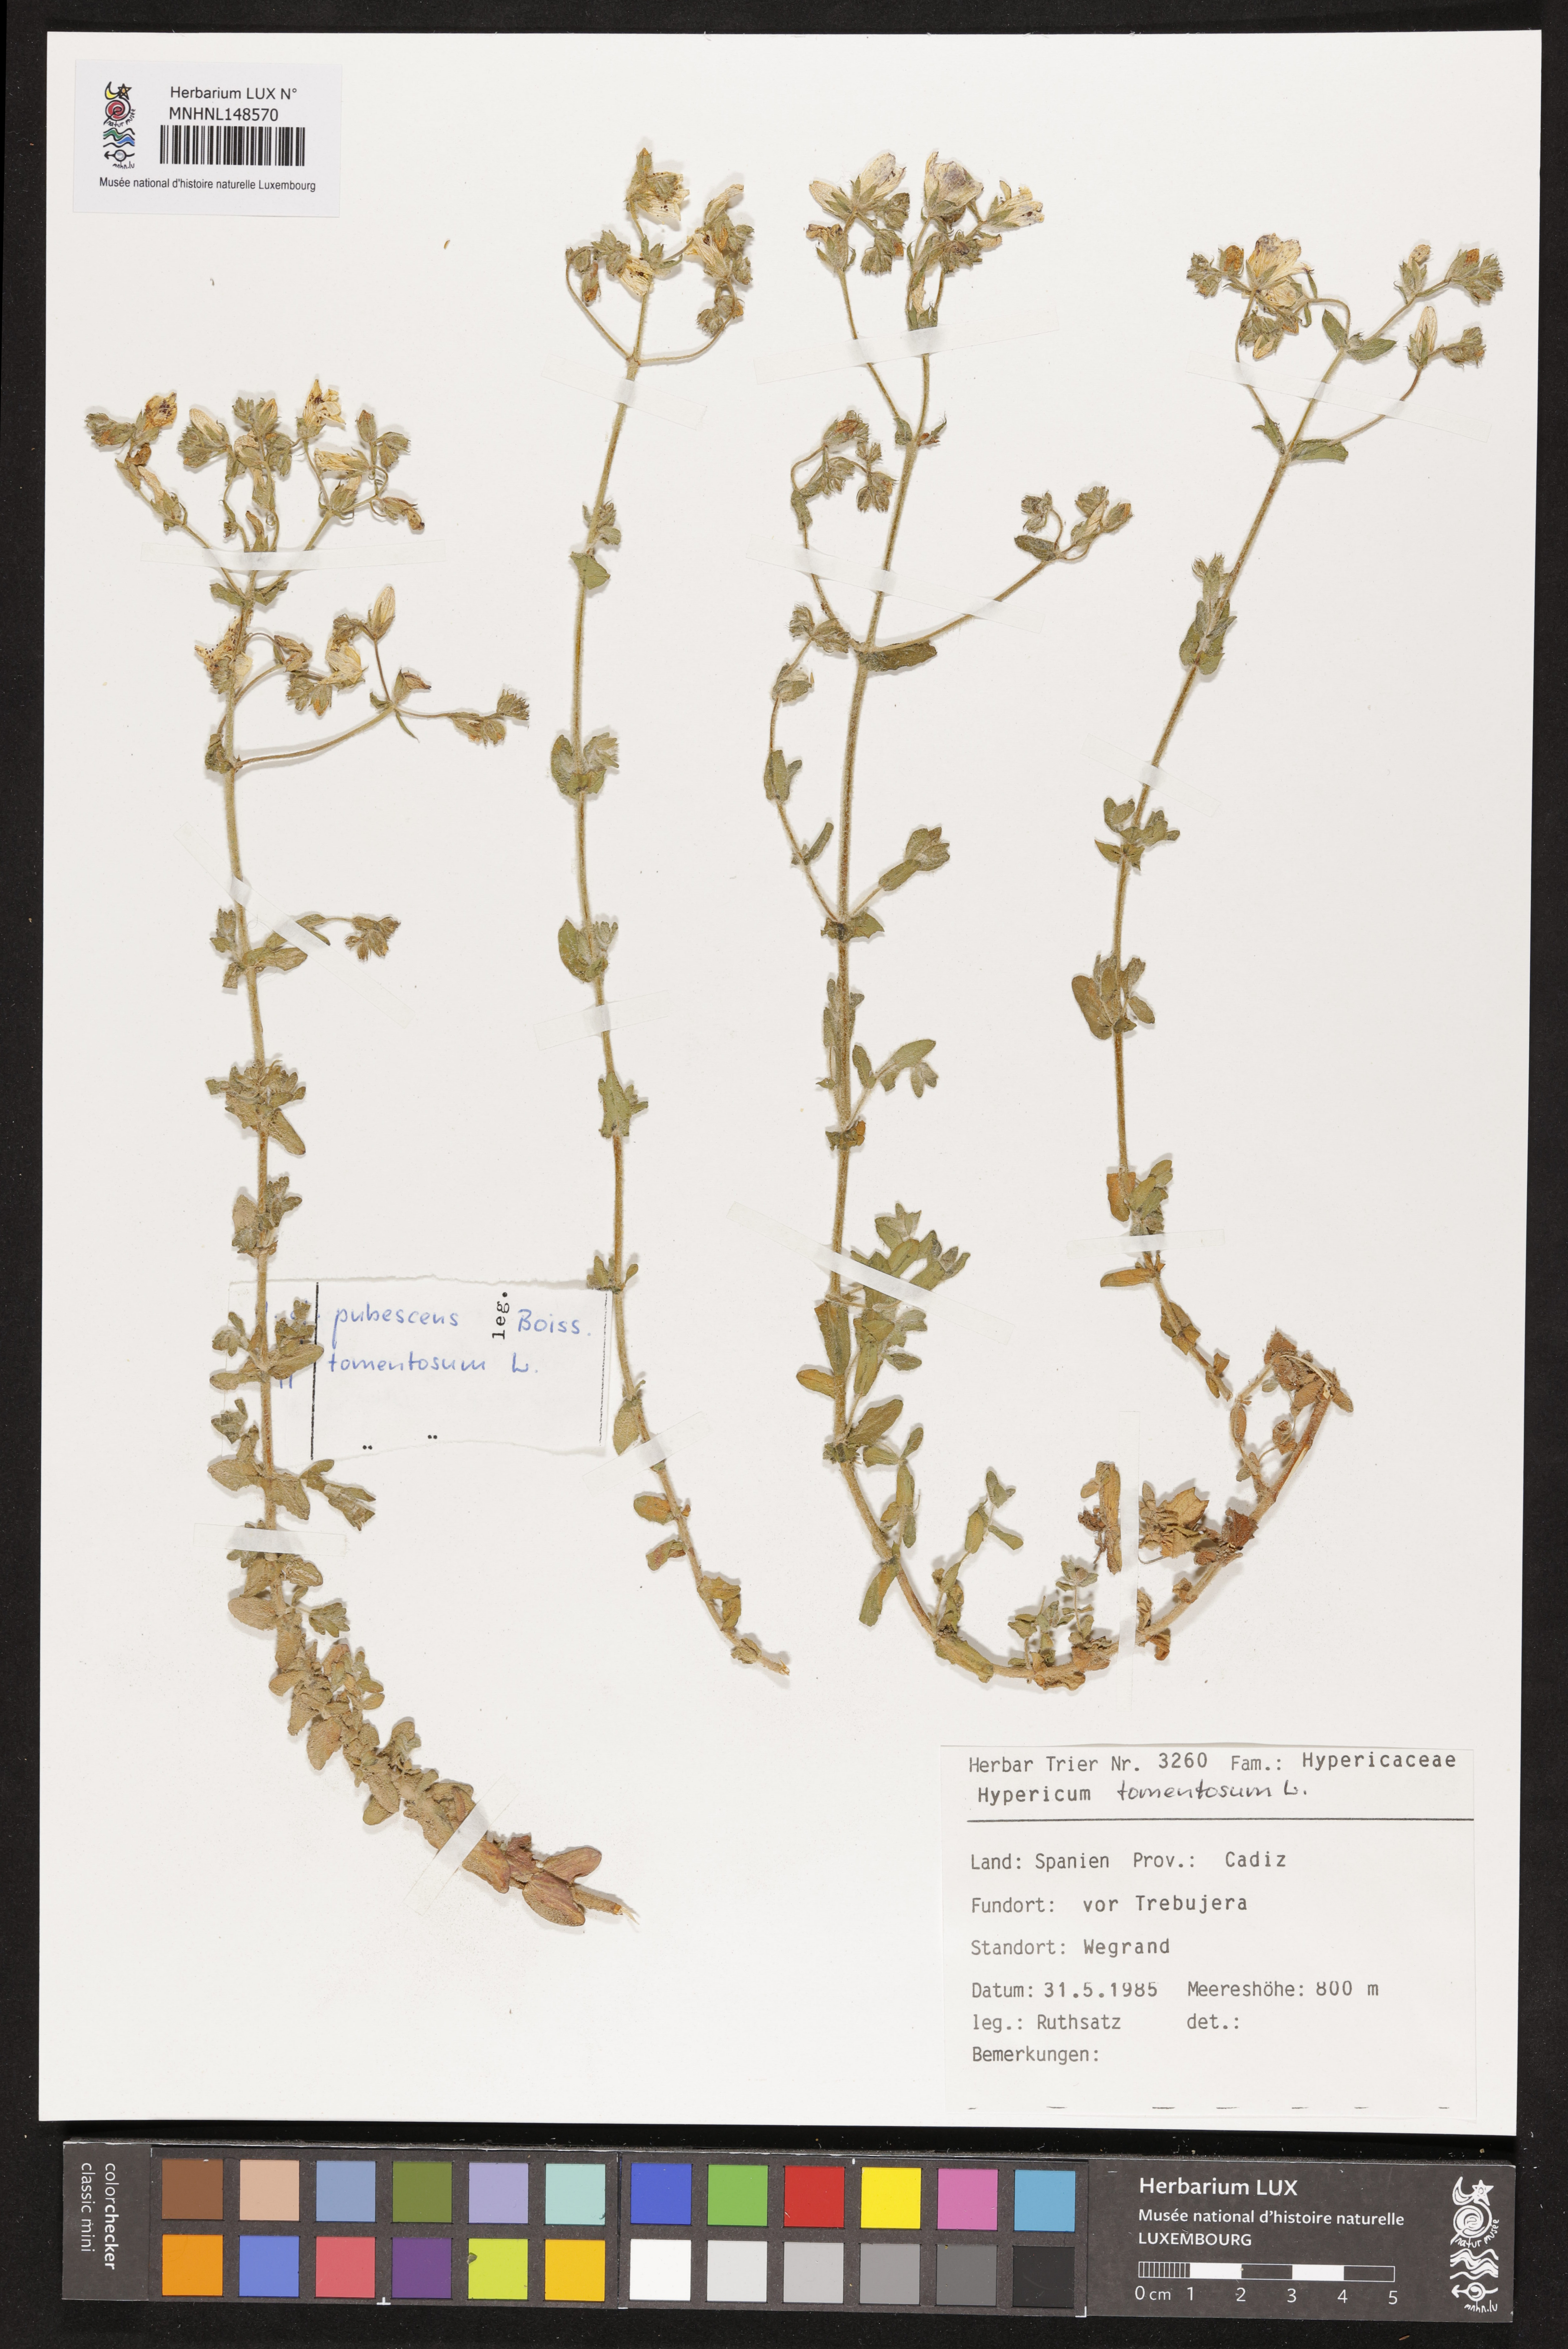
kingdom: Plantae
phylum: Tracheophyta
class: Magnoliopsida
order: Malpighiales
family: Hypericaceae
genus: Hypericum
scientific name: Hypericum tomentosum
